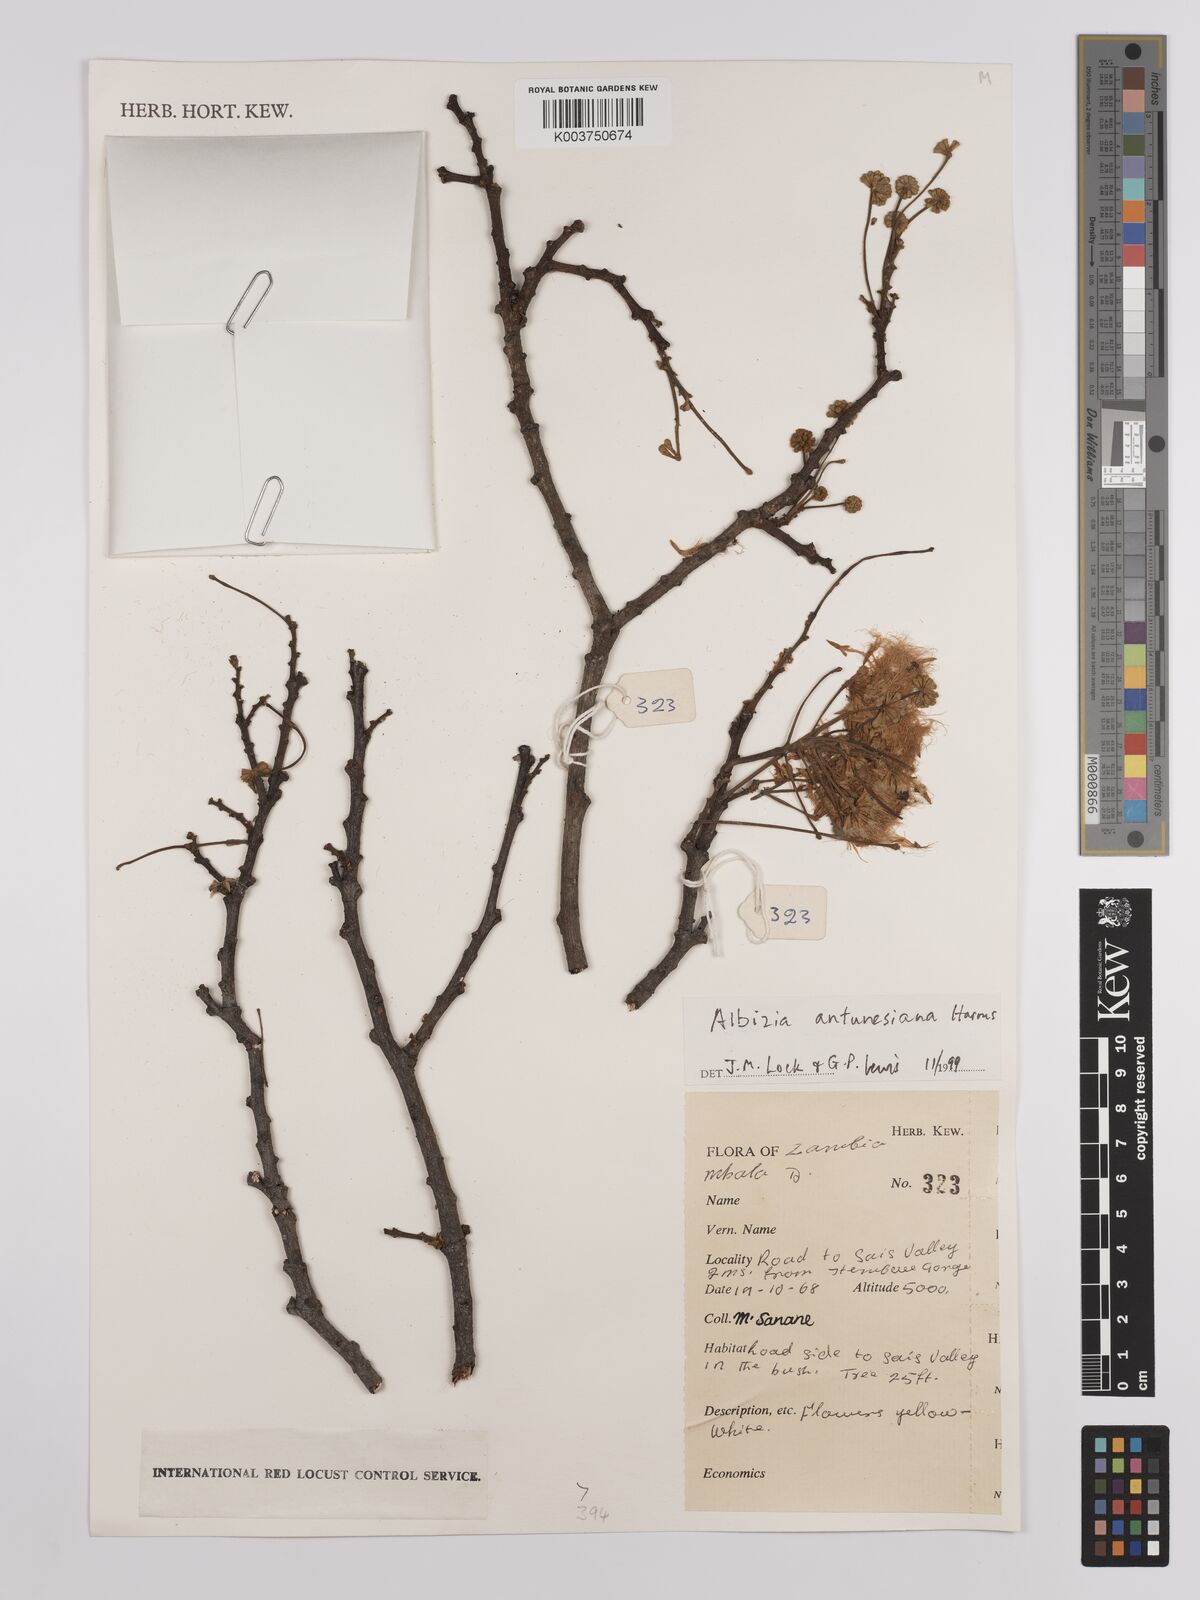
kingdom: Plantae
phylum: Tracheophyta
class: Magnoliopsida
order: Fabales
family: Fabaceae
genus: Albizia
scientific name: Albizia antunesiana
